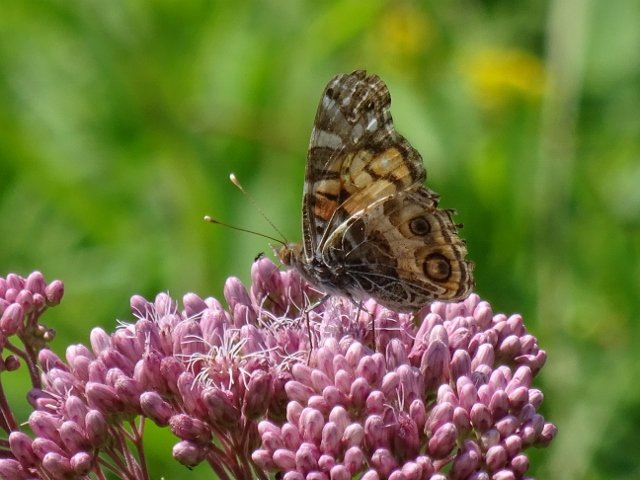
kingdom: Animalia
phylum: Arthropoda
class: Insecta
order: Lepidoptera
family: Nymphalidae
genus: Vanessa
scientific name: Vanessa virginiensis
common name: American Lady
